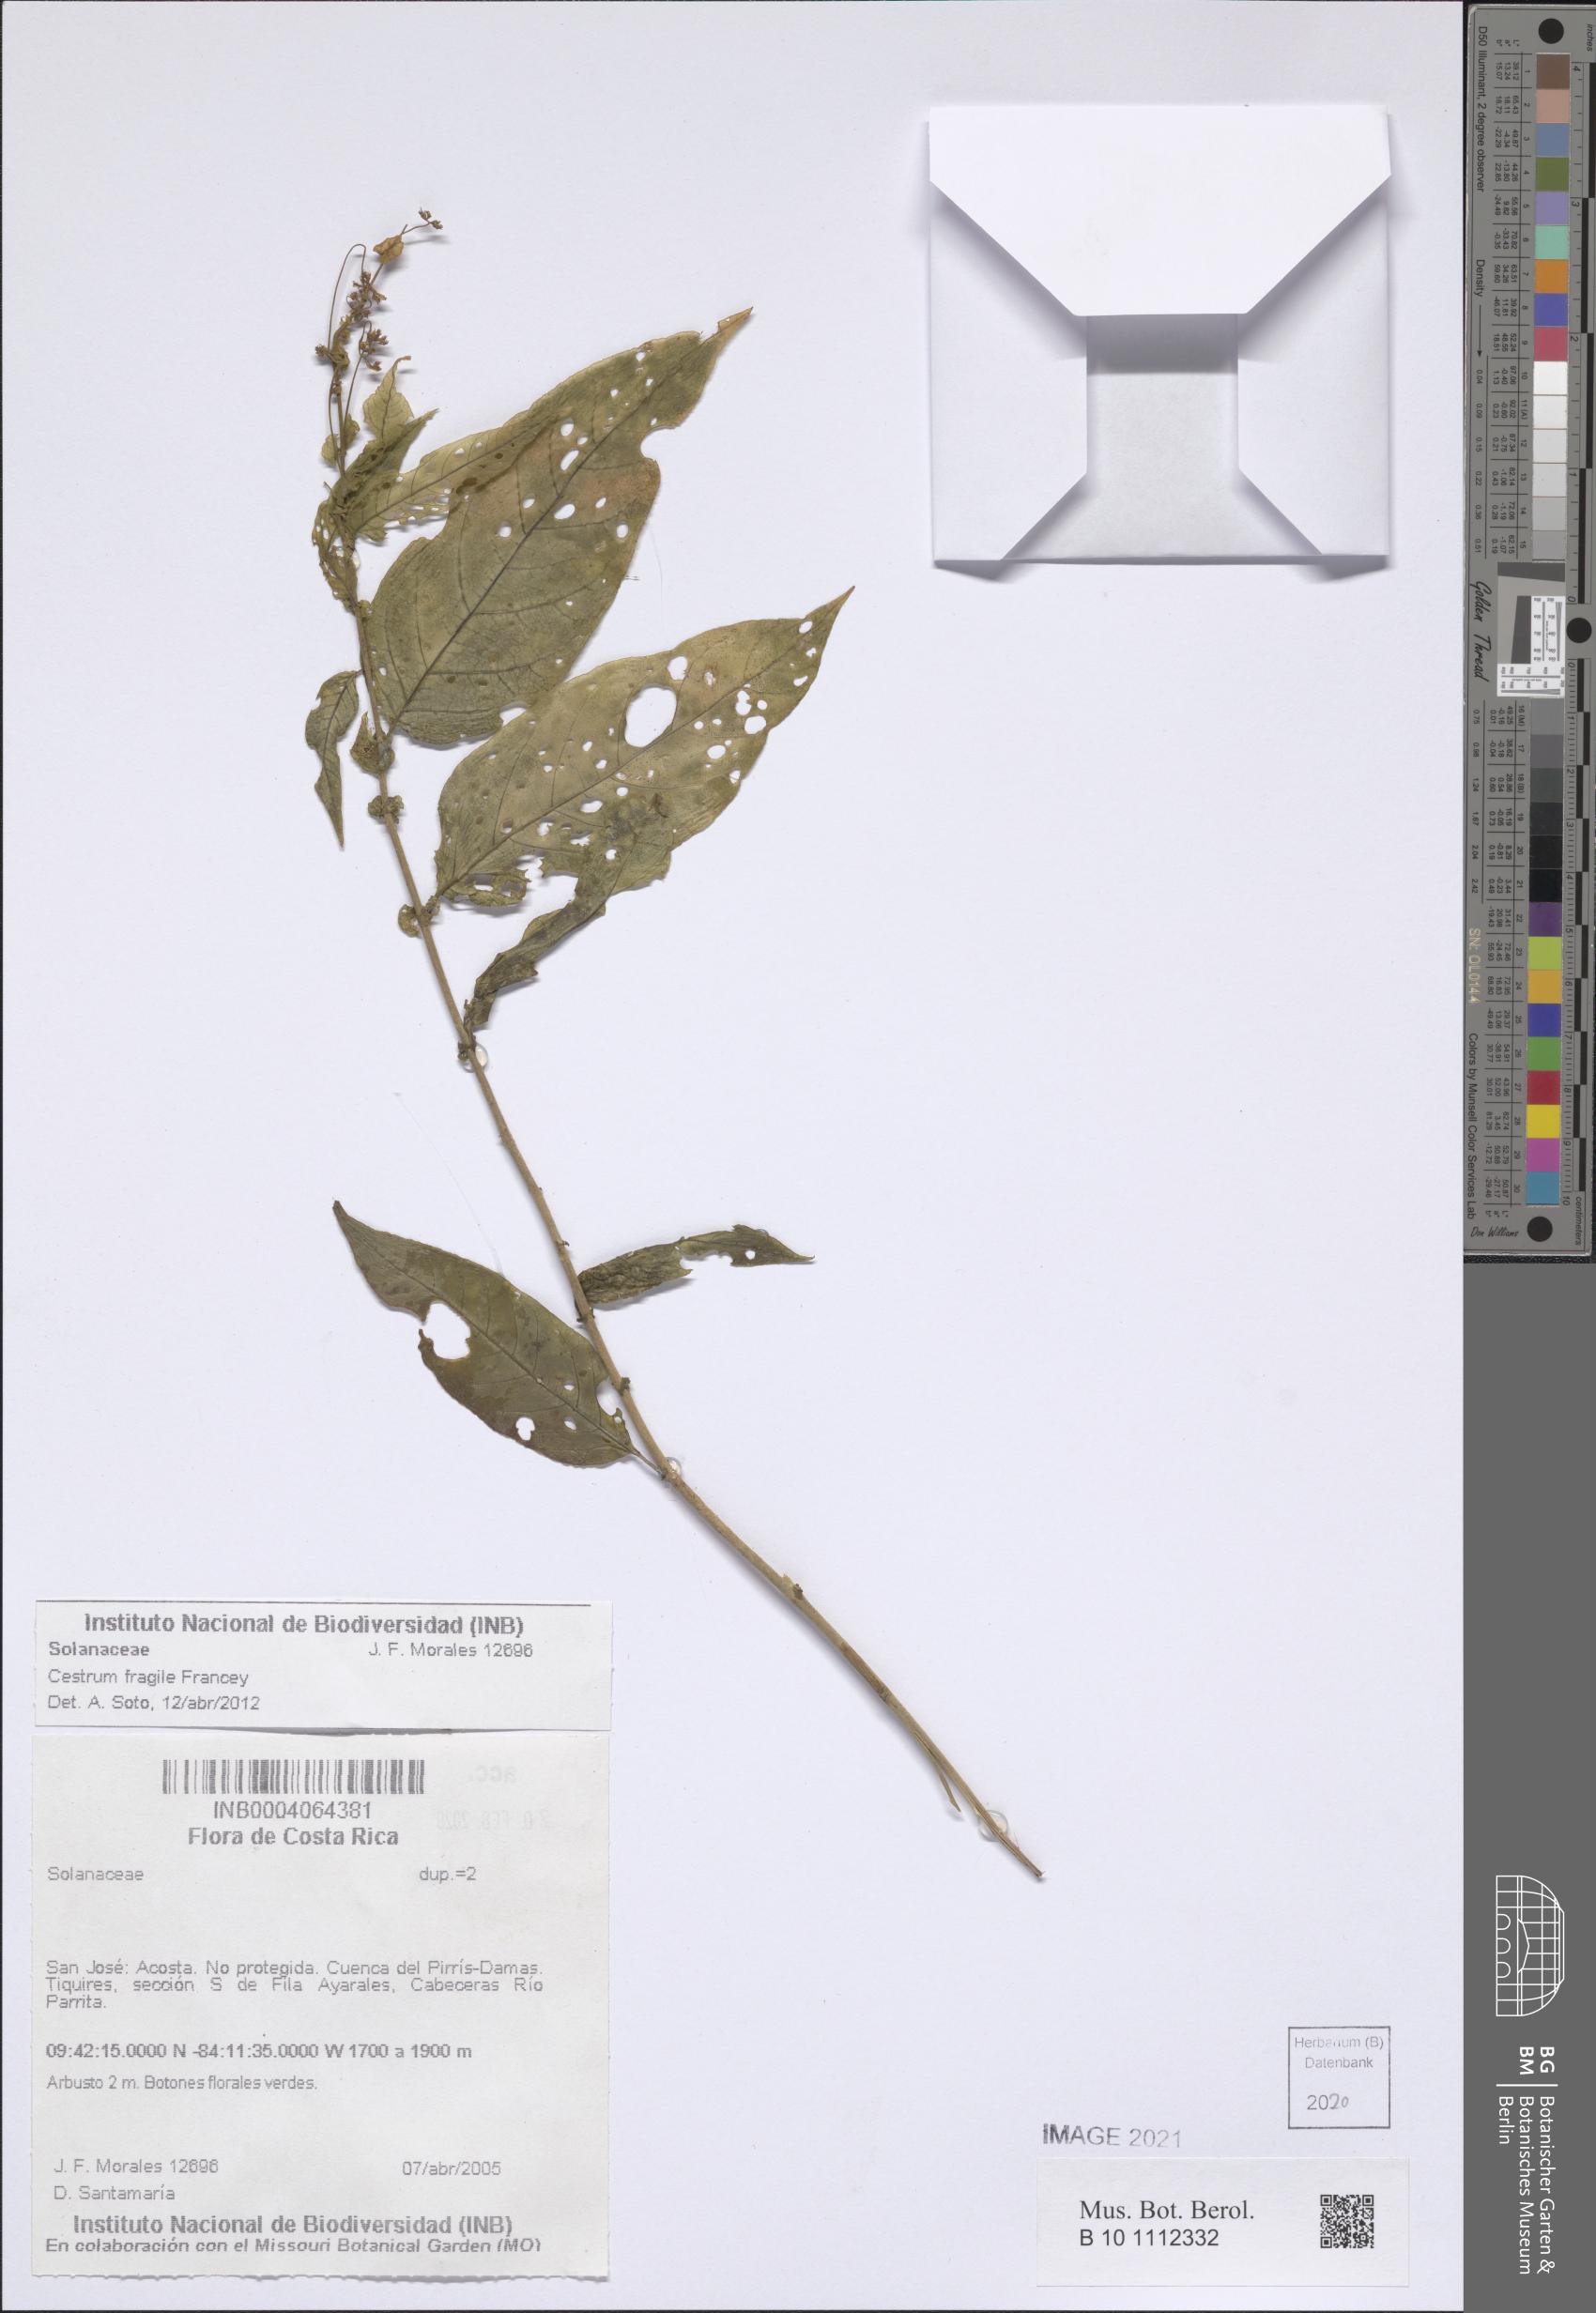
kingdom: Plantae
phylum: Tracheophyta
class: Magnoliopsida
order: Solanales
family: Solanaceae
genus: Cestrum
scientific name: Cestrum fragile
